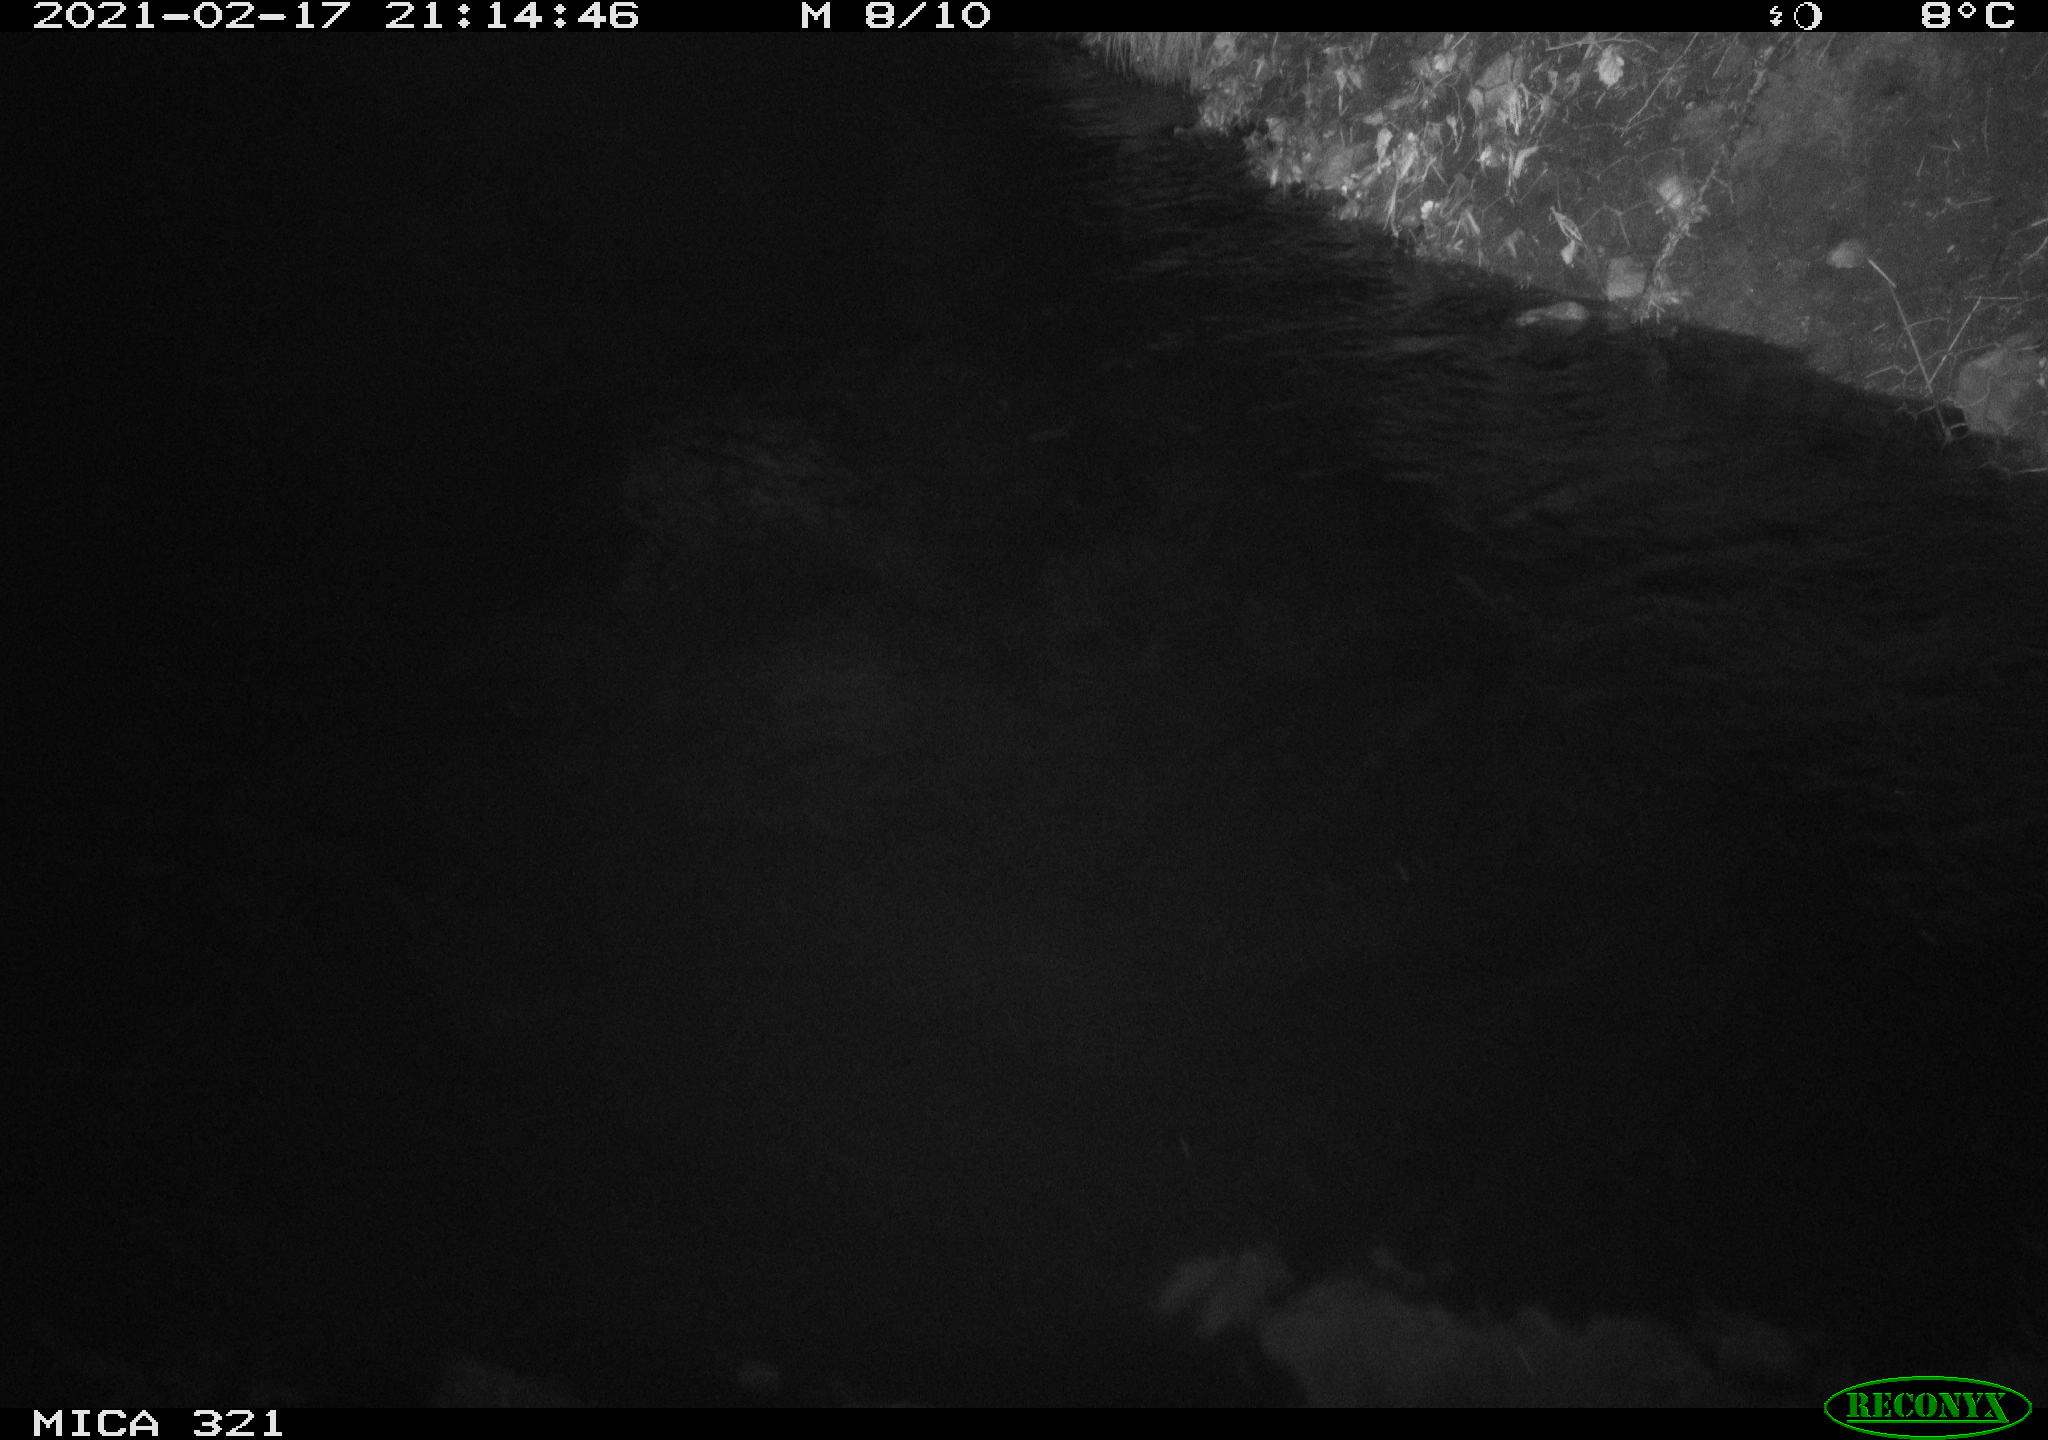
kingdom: Animalia
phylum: Chordata
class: Mammalia
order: Rodentia
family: Muridae
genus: Rattus
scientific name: Rattus norvegicus
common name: Brown rat
